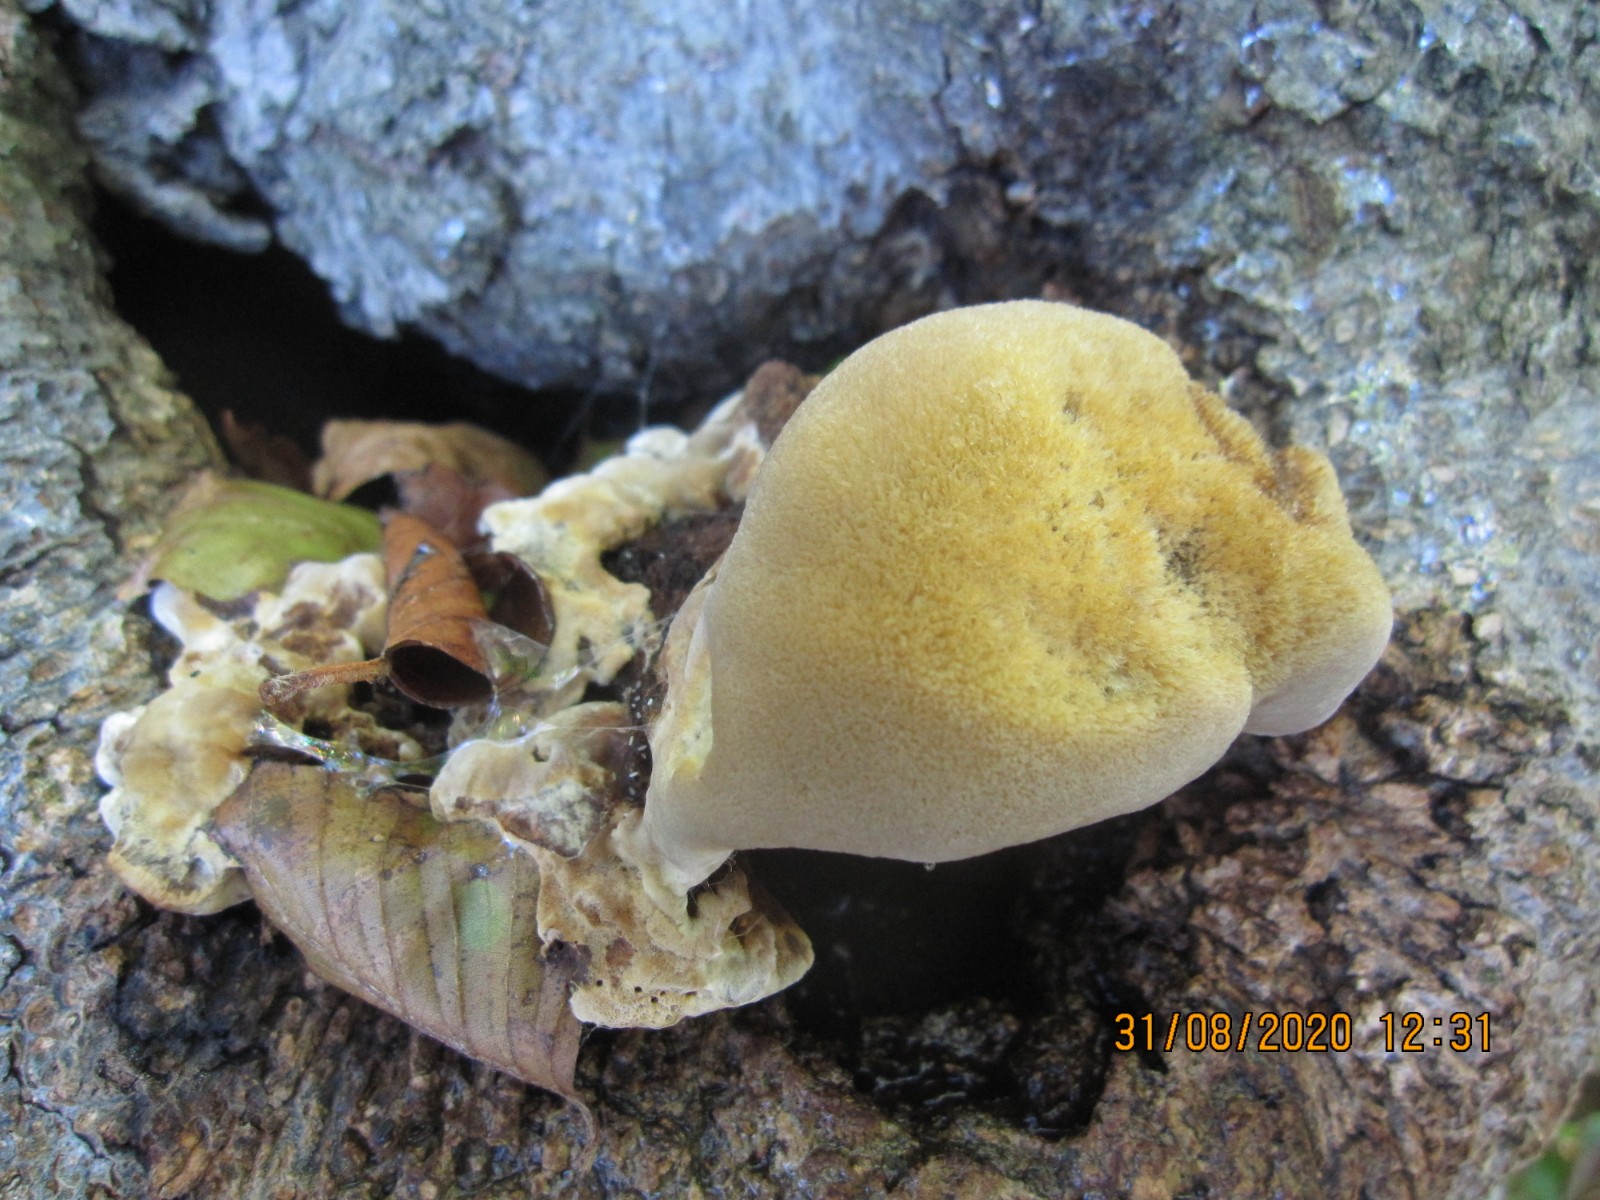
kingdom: Fungi
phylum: Basidiomycota
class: Agaricomycetes
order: Hymenochaetales
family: Hymenochaetaceae
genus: Inonotus
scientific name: Inonotus cuticularis
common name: kroghåret spejlporesvamp
